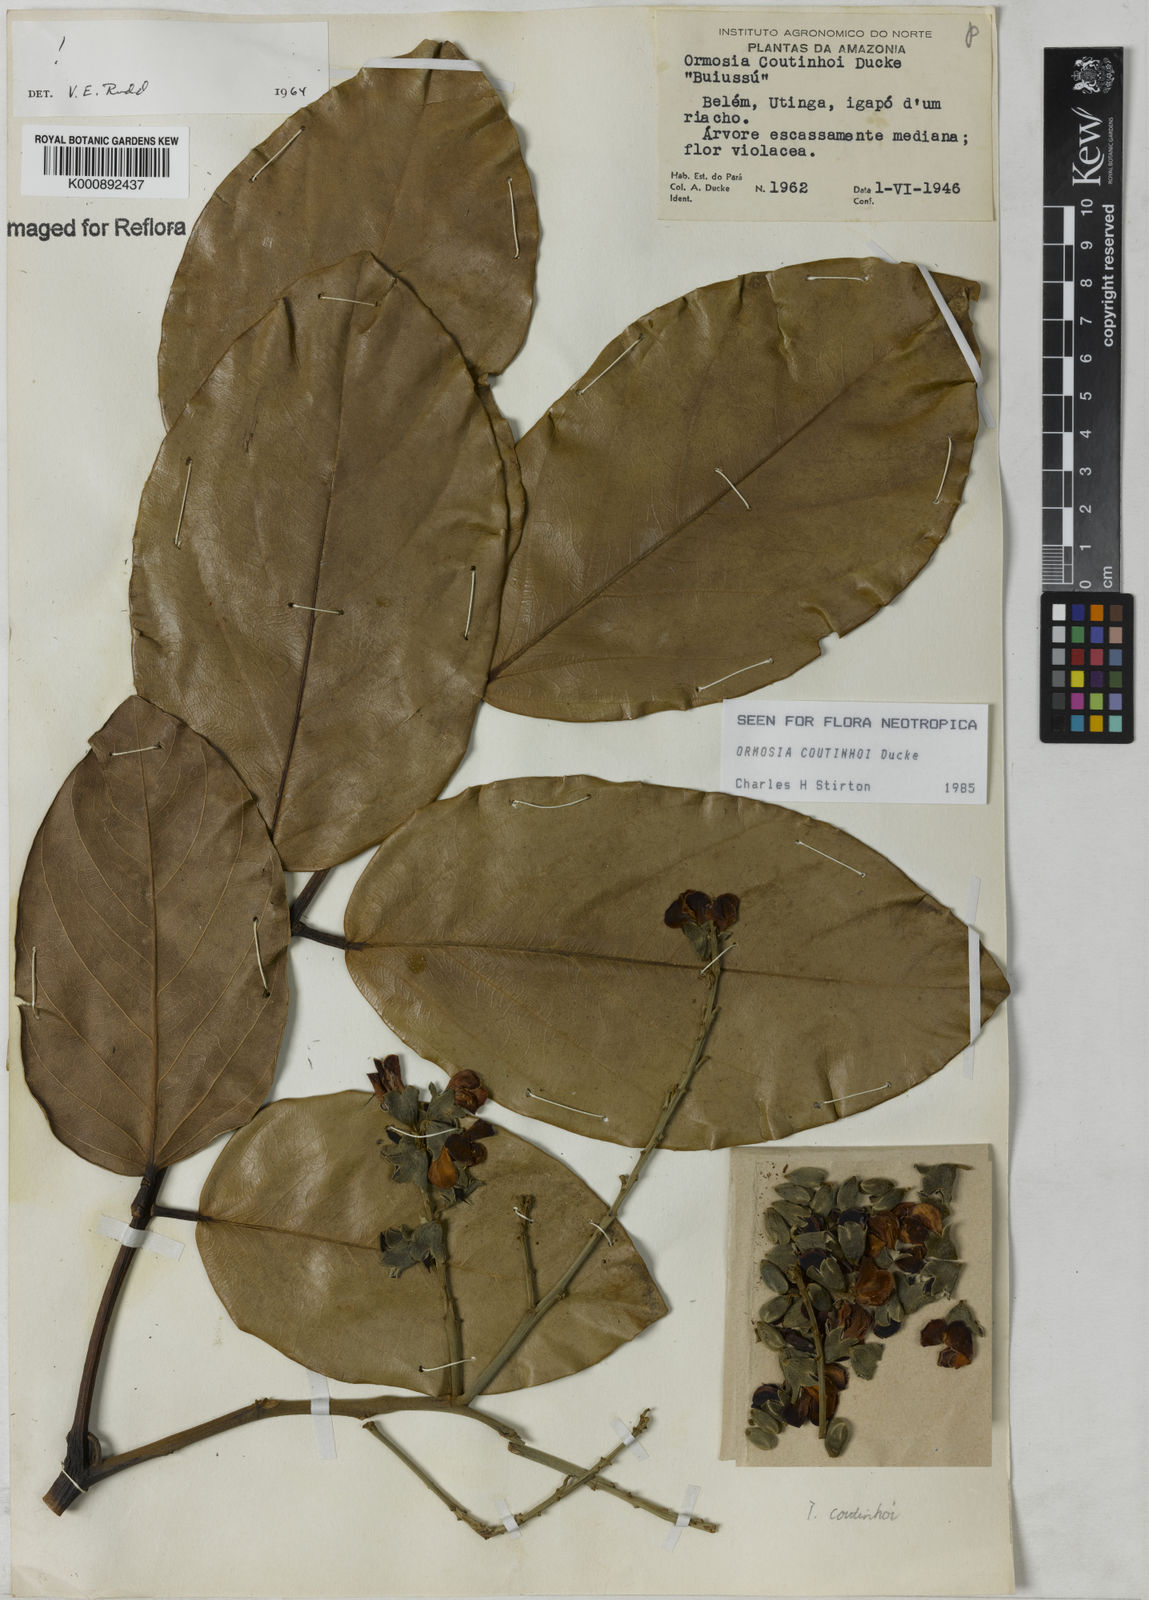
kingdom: Plantae
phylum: Tracheophyta
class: Magnoliopsida
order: Fabales
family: Fabaceae
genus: Ormosia
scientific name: Ormosia coutinhoi
